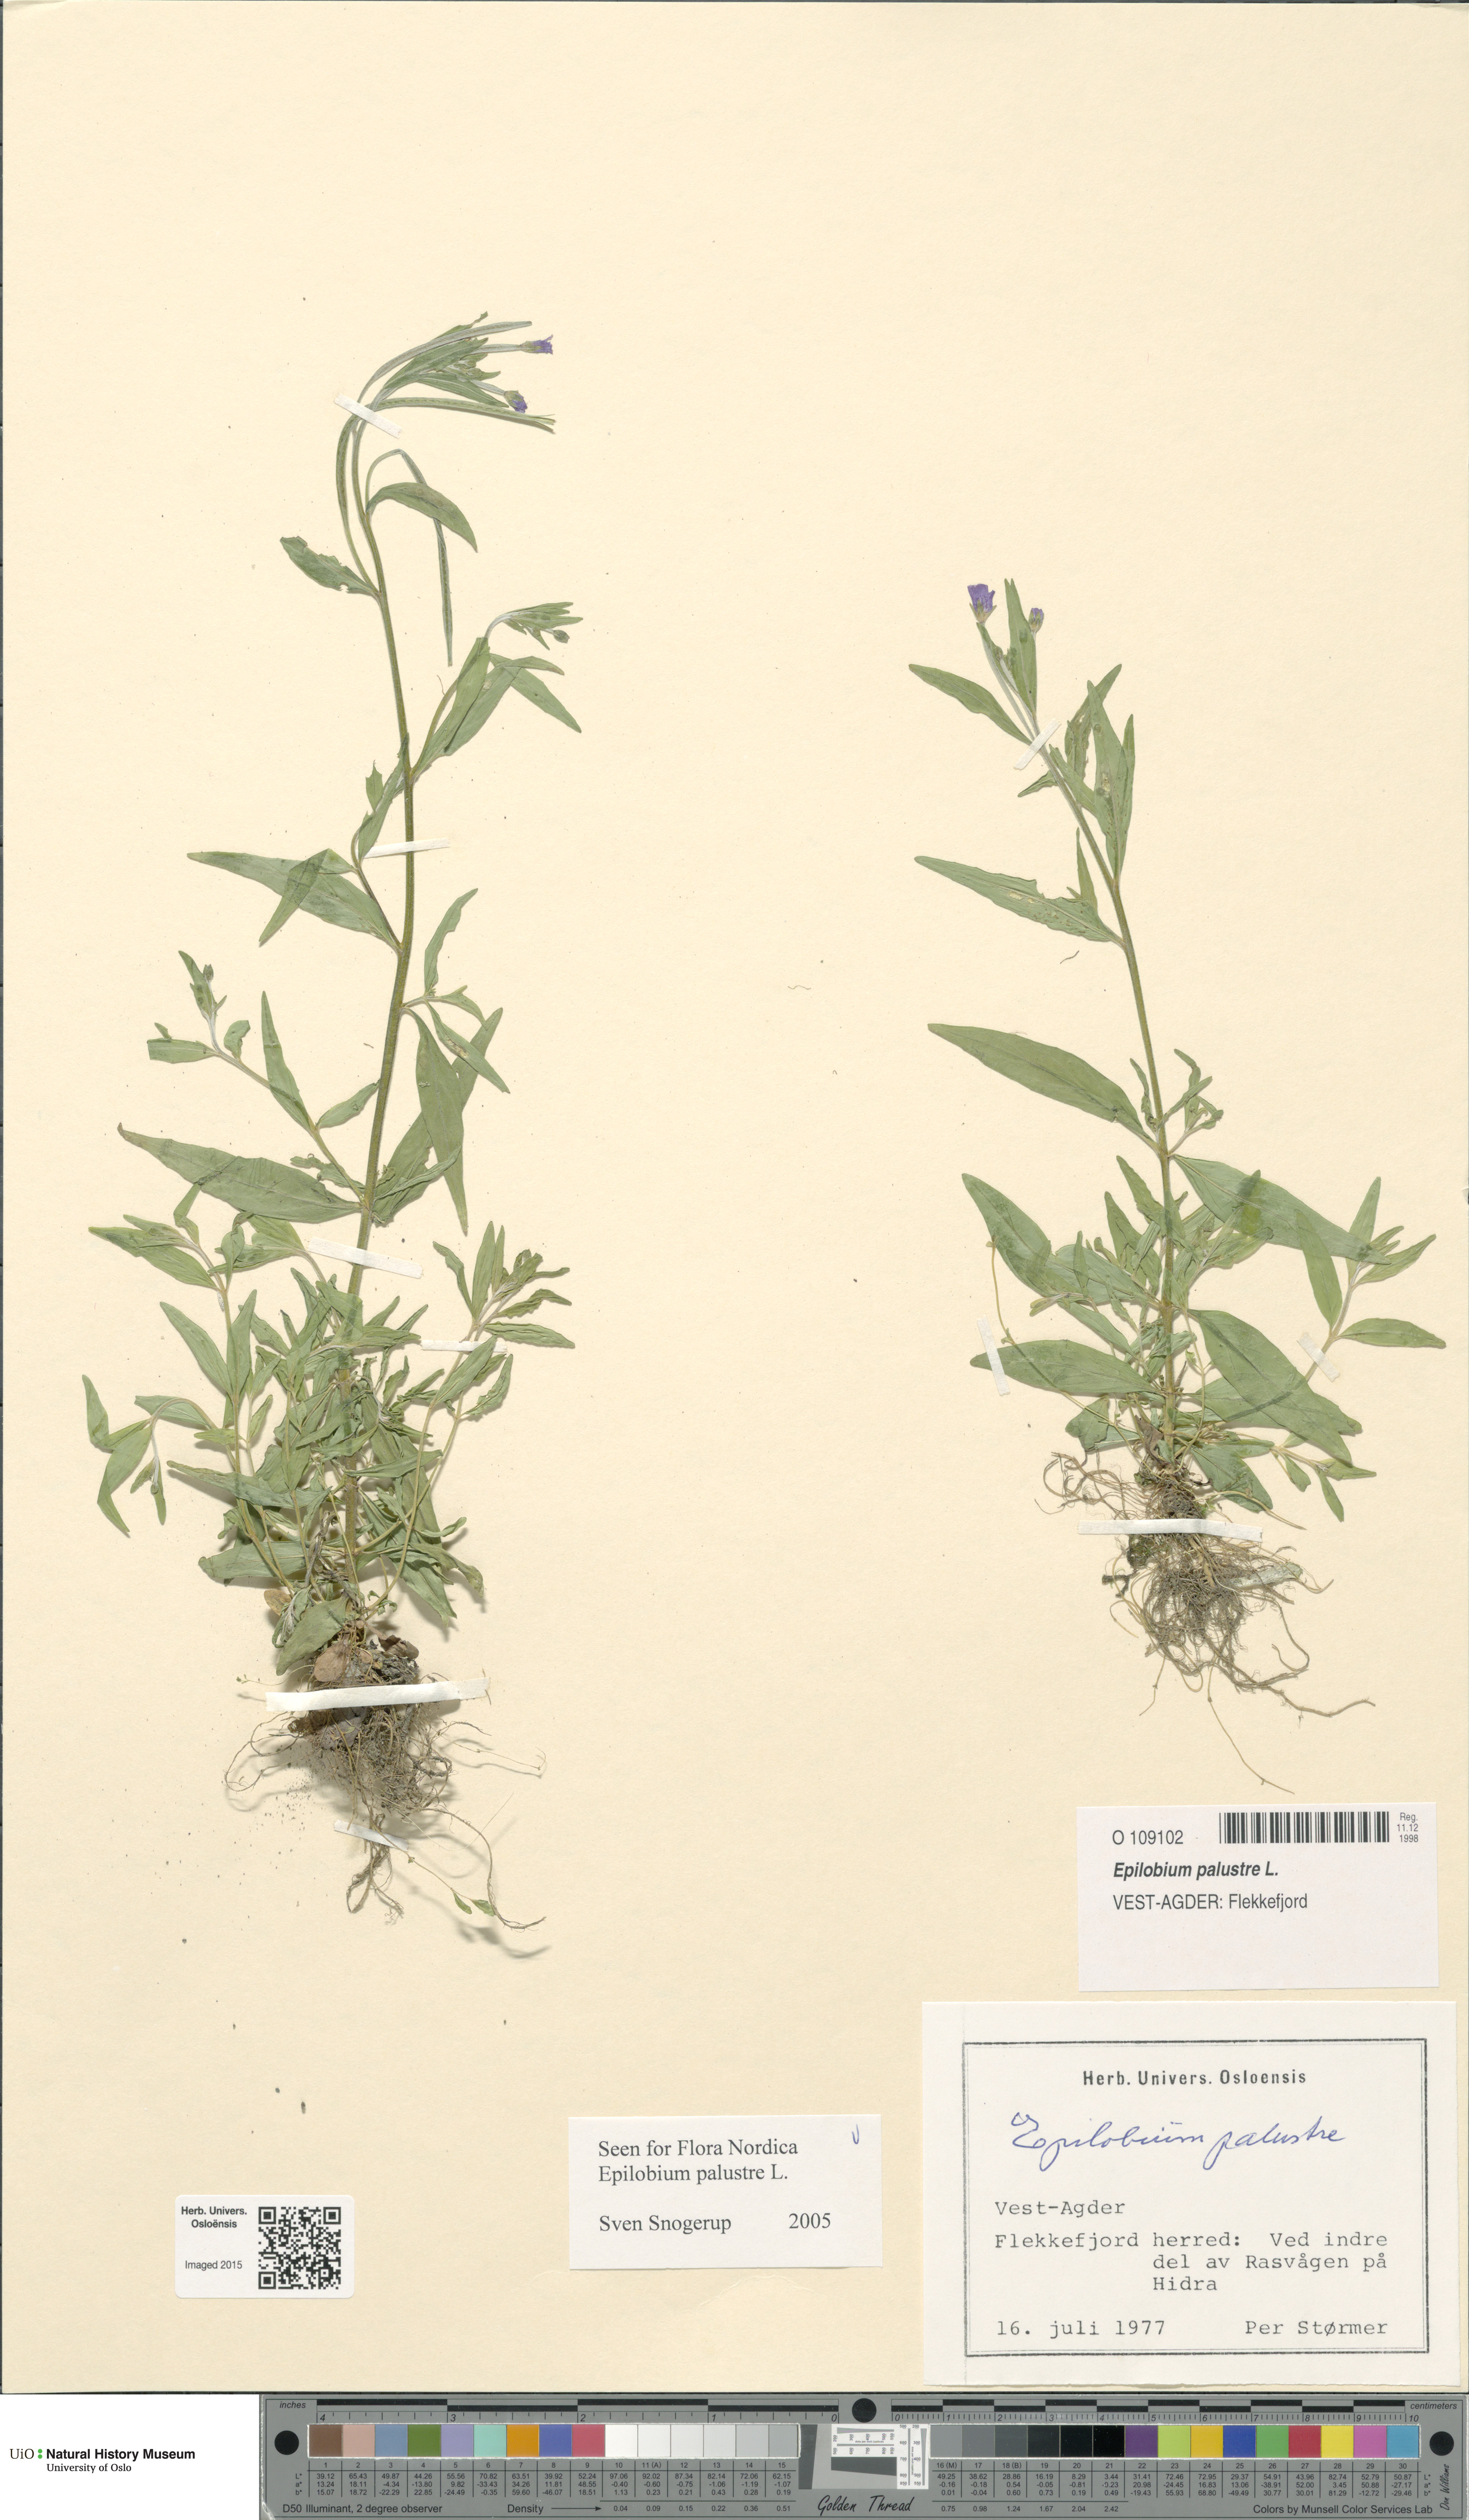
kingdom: Plantae
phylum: Tracheophyta
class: Magnoliopsida
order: Myrtales
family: Onagraceae
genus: Epilobium
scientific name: Epilobium palustre
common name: Marsh willowherb
